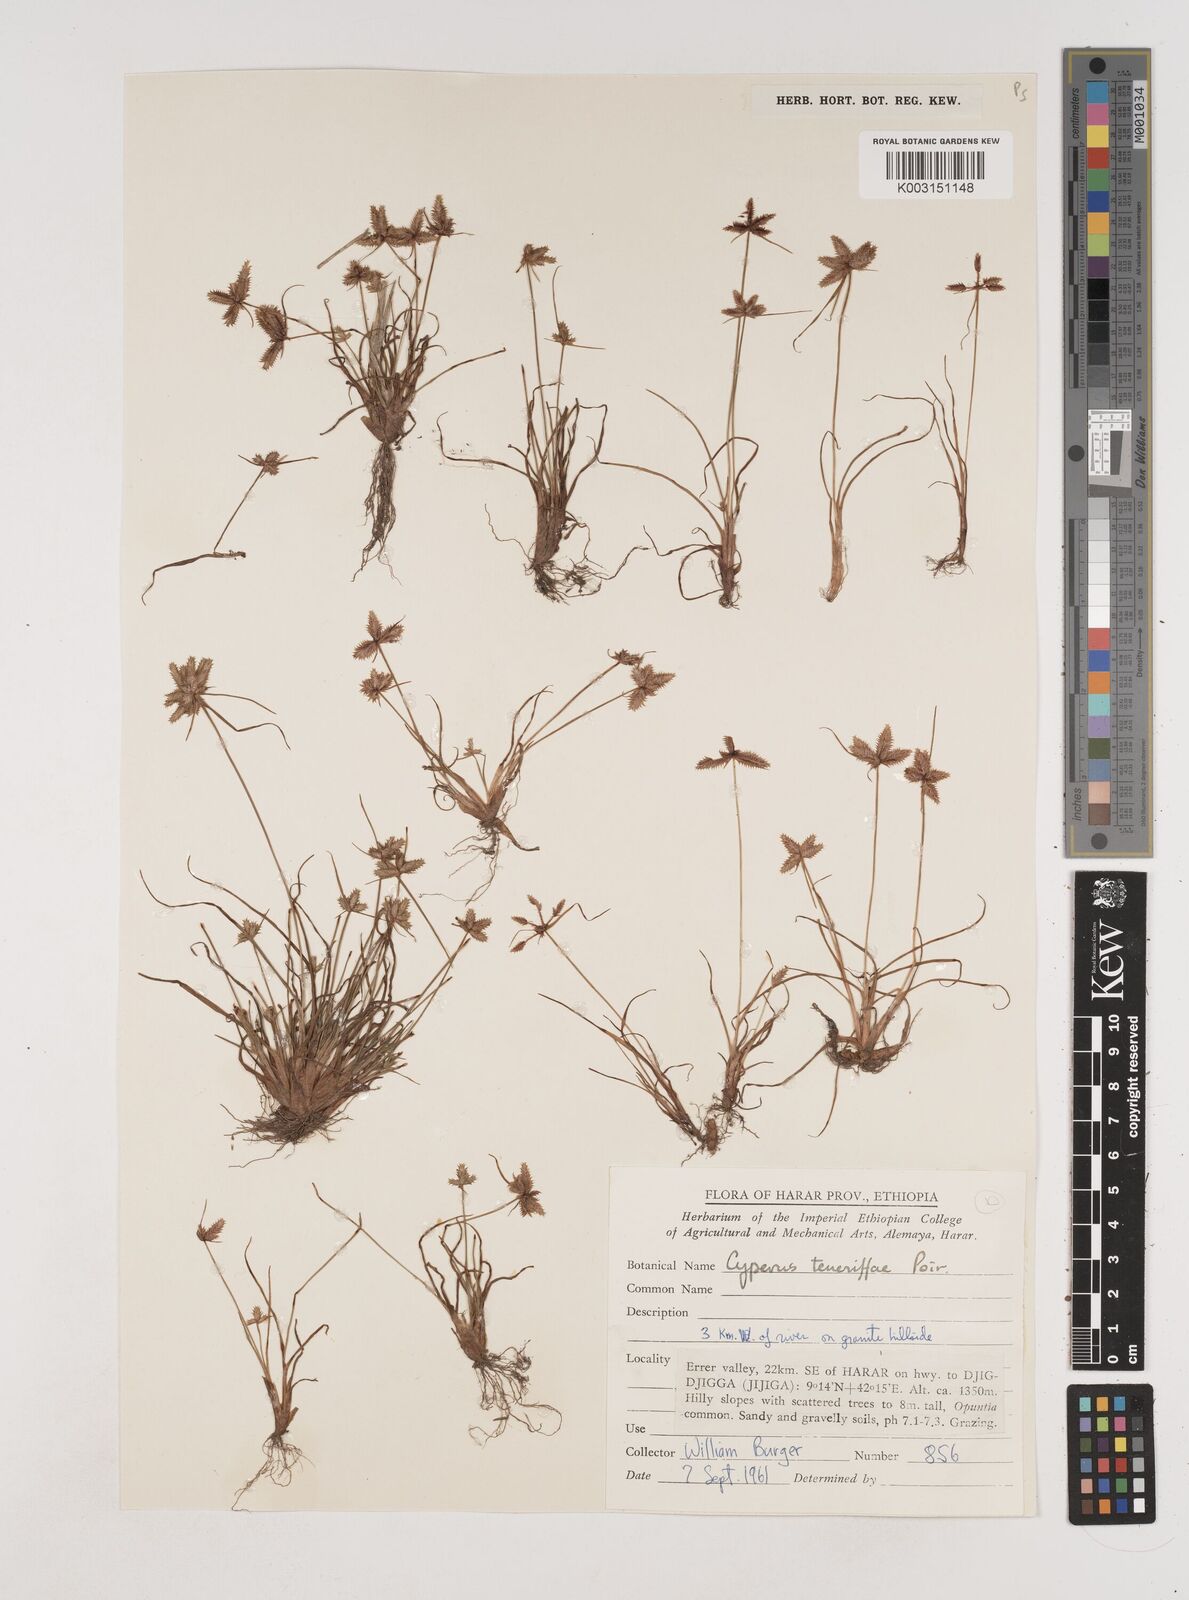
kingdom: Plantae
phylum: Tracheophyta
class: Liliopsida
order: Poales
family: Cyperaceae
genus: Cyperus
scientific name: Cyperus rubicundus
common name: Coco-grass
